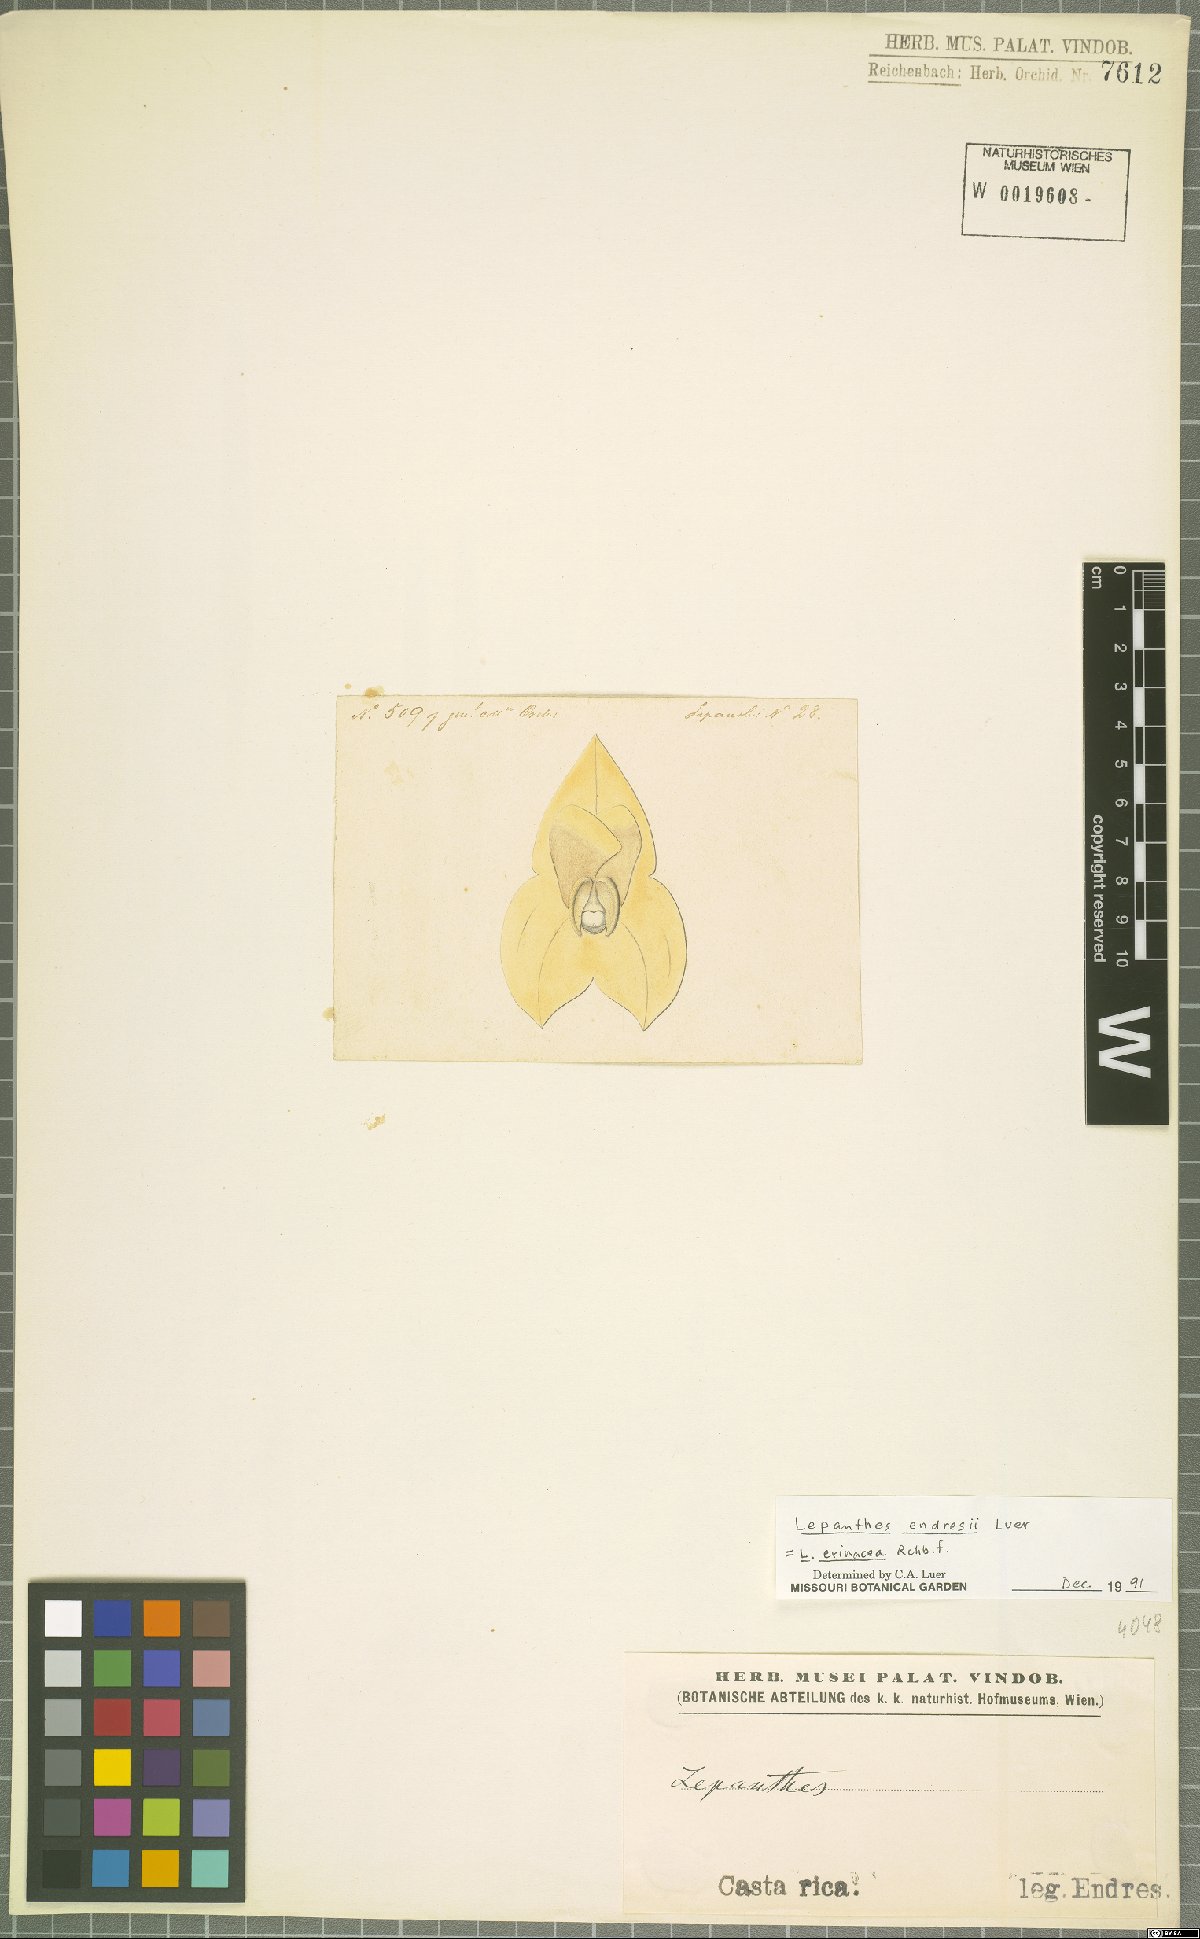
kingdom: Plantae
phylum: Tracheophyta
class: Liliopsida
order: Asparagales
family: Orchidaceae
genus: Lepanthes
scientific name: Lepanthes erinacea
